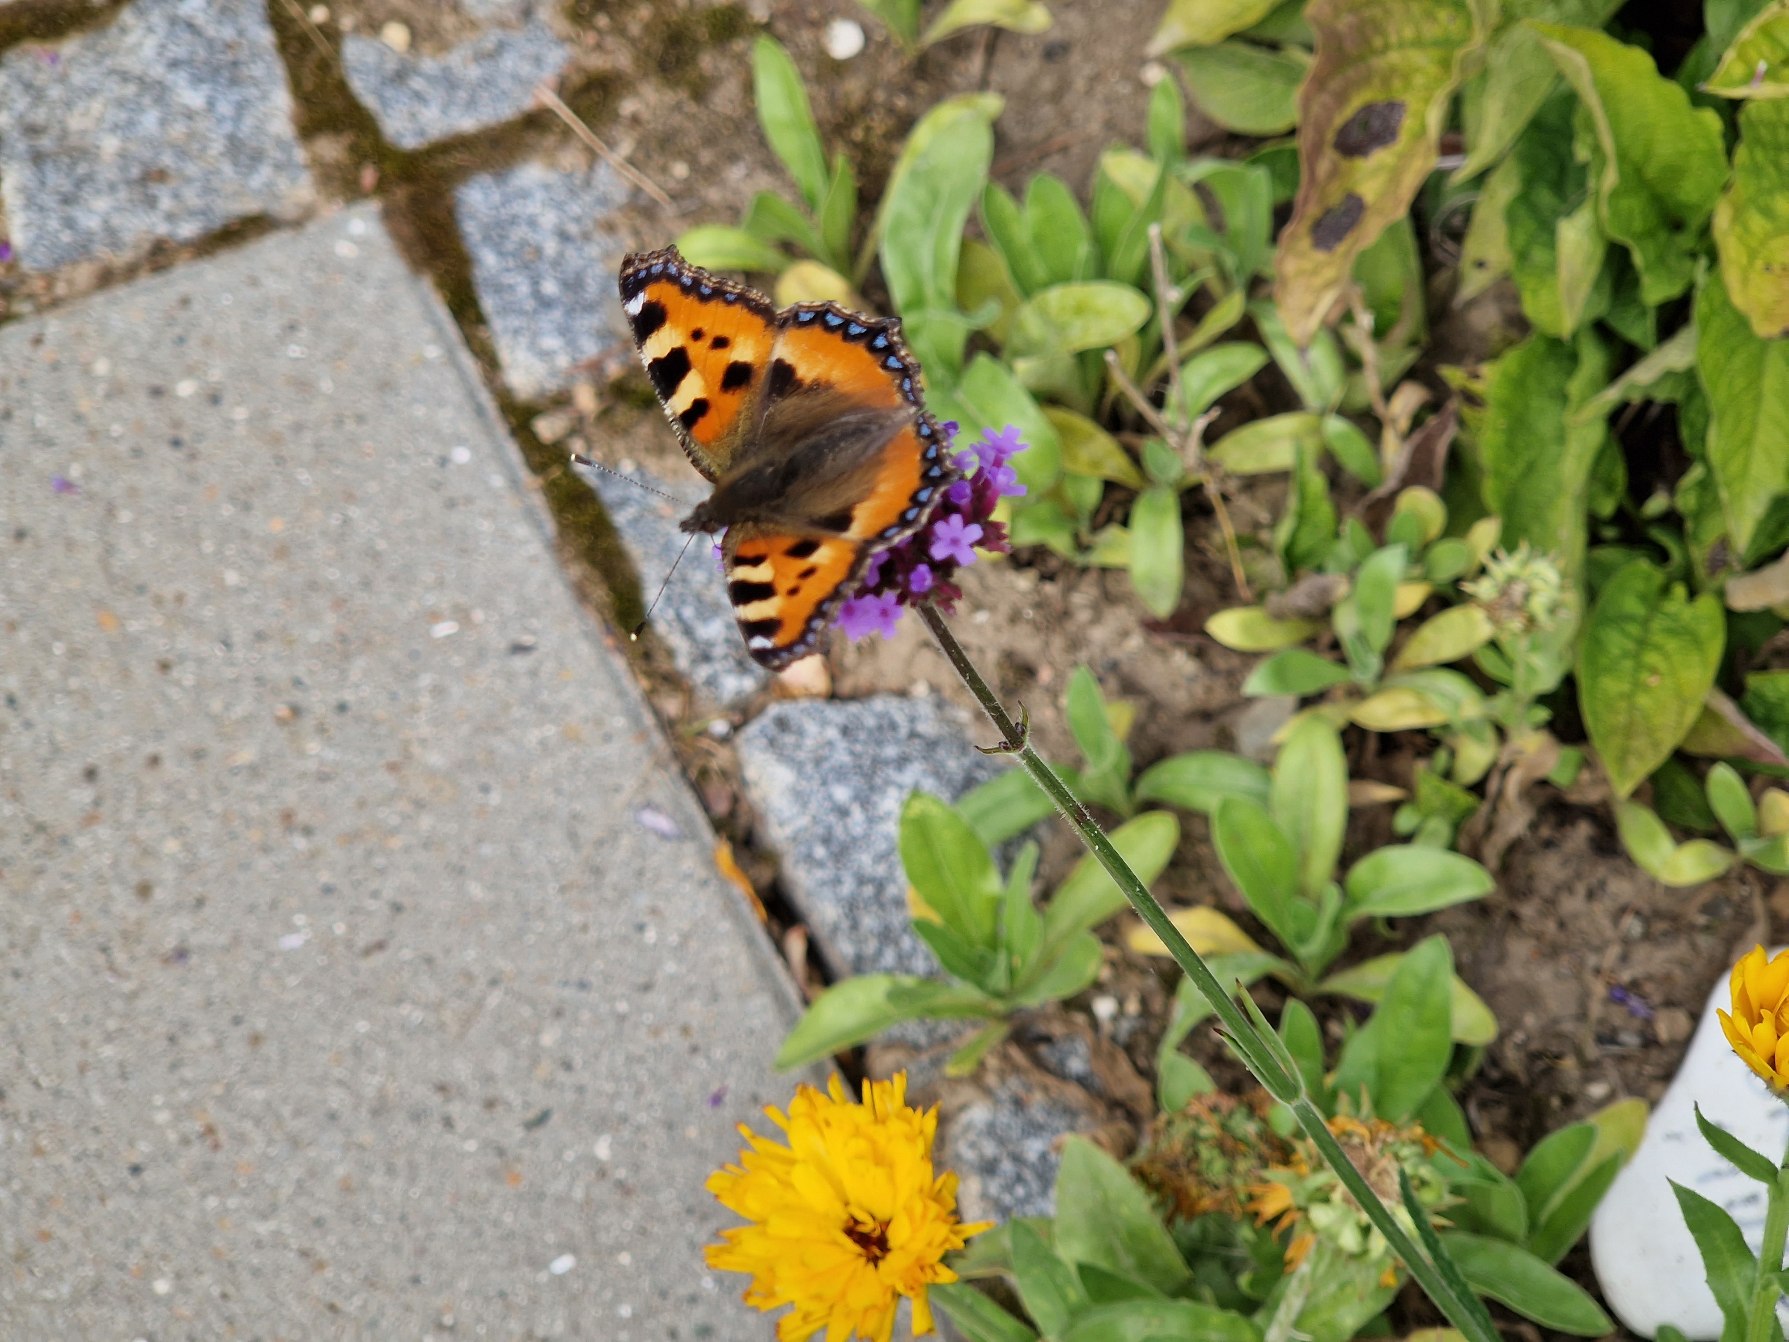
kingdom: Animalia
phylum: Arthropoda
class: Insecta
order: Lepidoptera
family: Nymphalidae
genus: Aglais
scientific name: Aglais urticae
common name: Nældens takvinge
